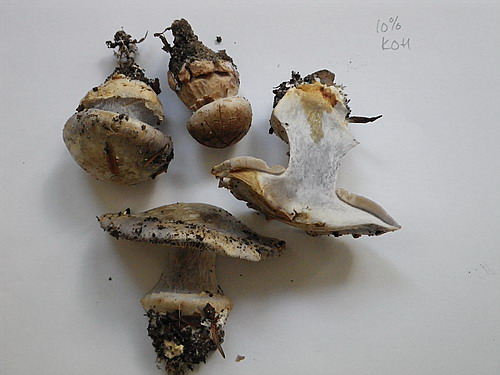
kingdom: Fungi
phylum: Basidiomycota
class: Agaricomycetes
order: Agaricales
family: Cortinariaceae
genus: Cortinarius
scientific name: Cortinarius caerulescens
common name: blåkødet slørhat
